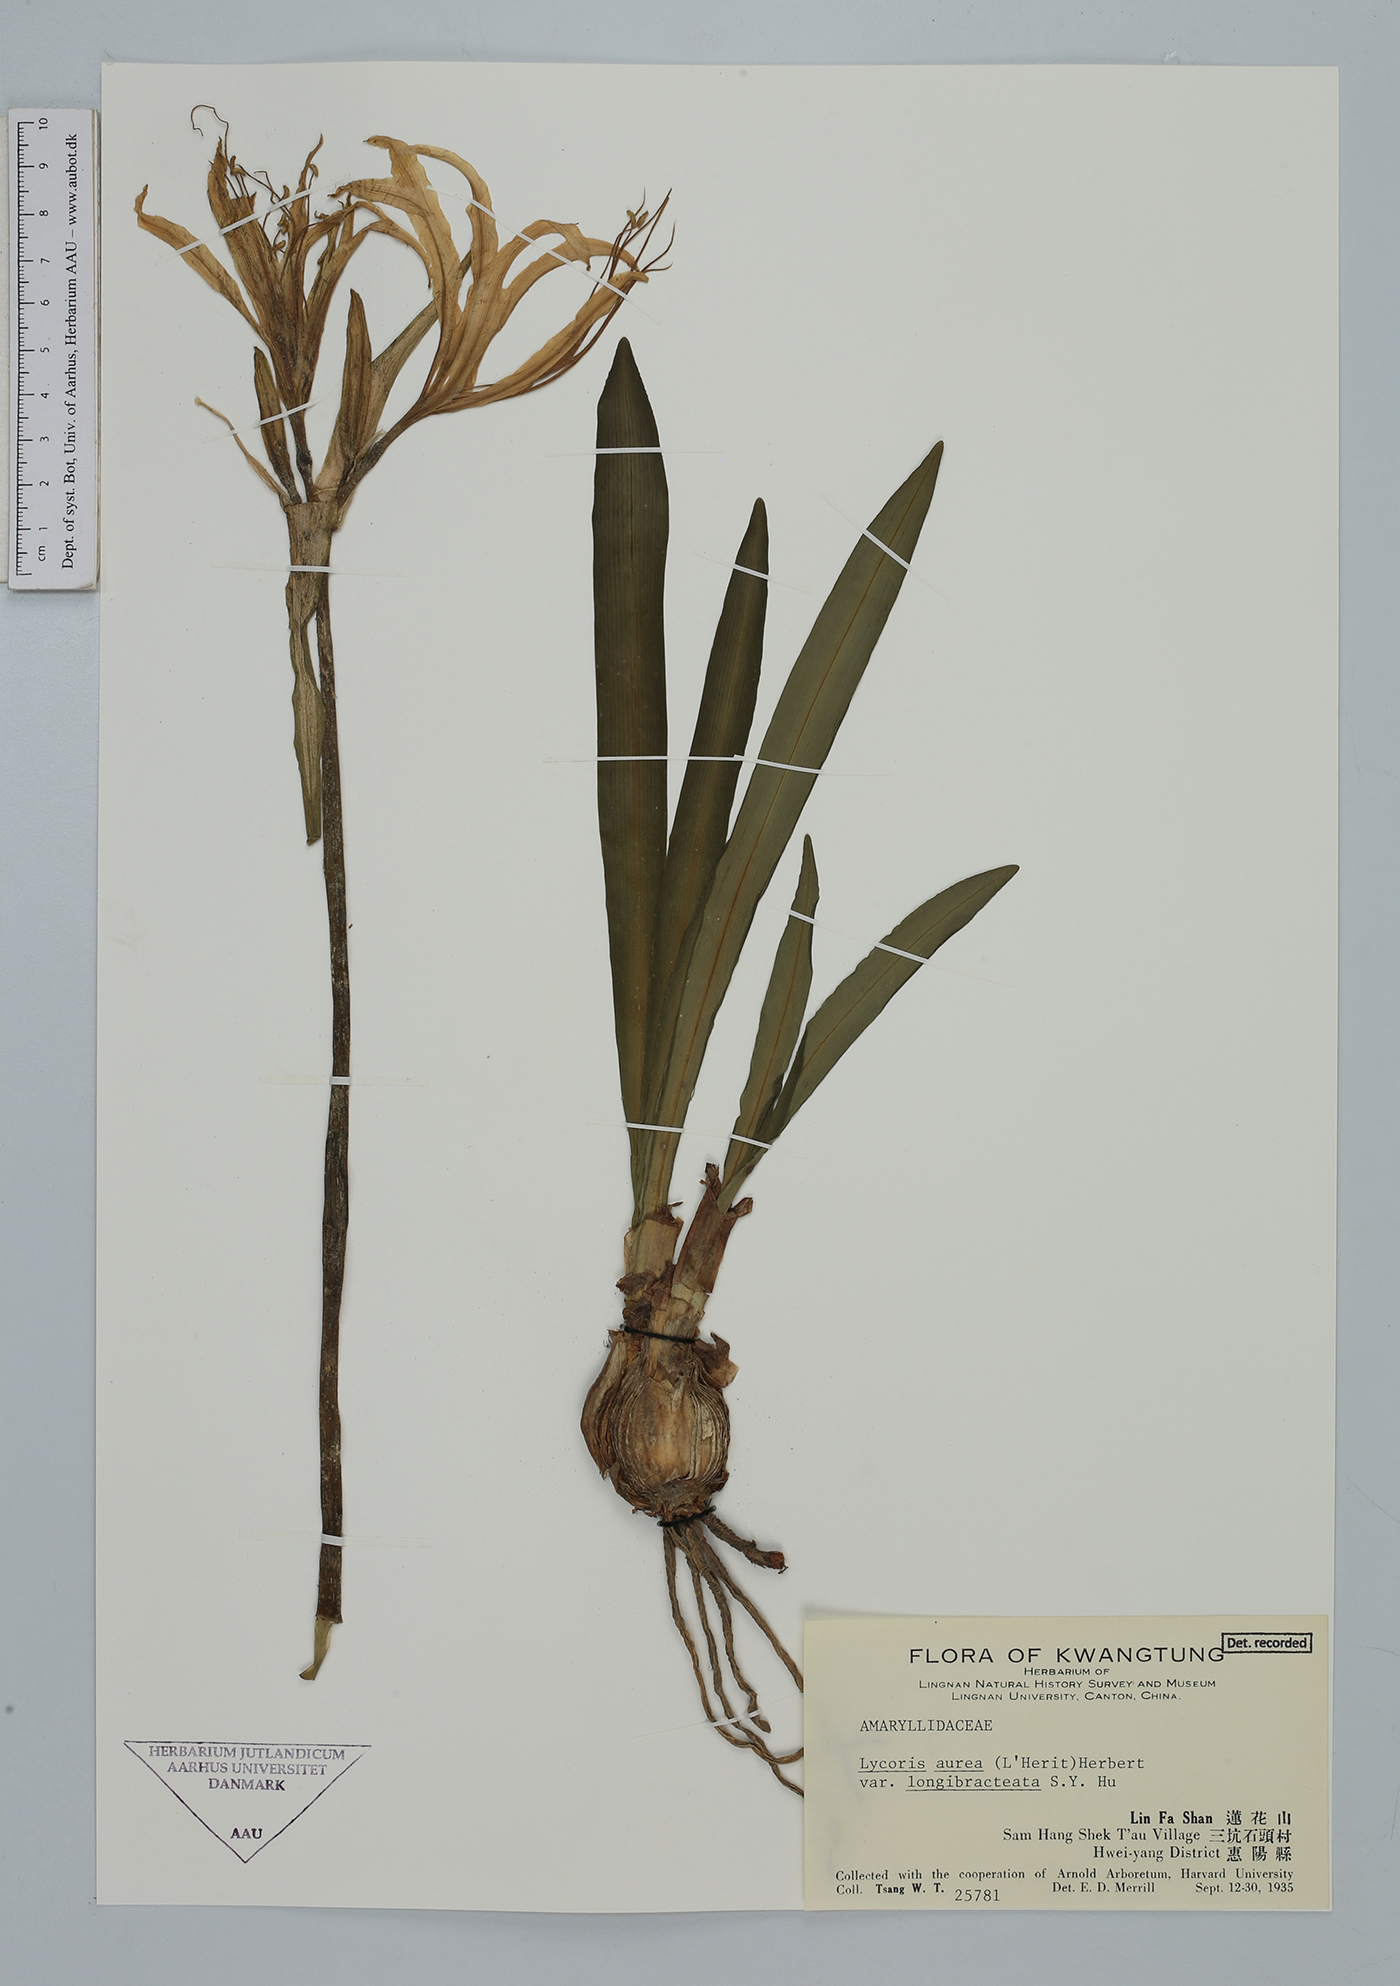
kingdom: Plantae
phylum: Tracheophyta
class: Liliopsida
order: Asparagales
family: Amaryllidaceae
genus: Lycoris
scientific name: Lycoris aurea
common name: Golden hurricane-lily
